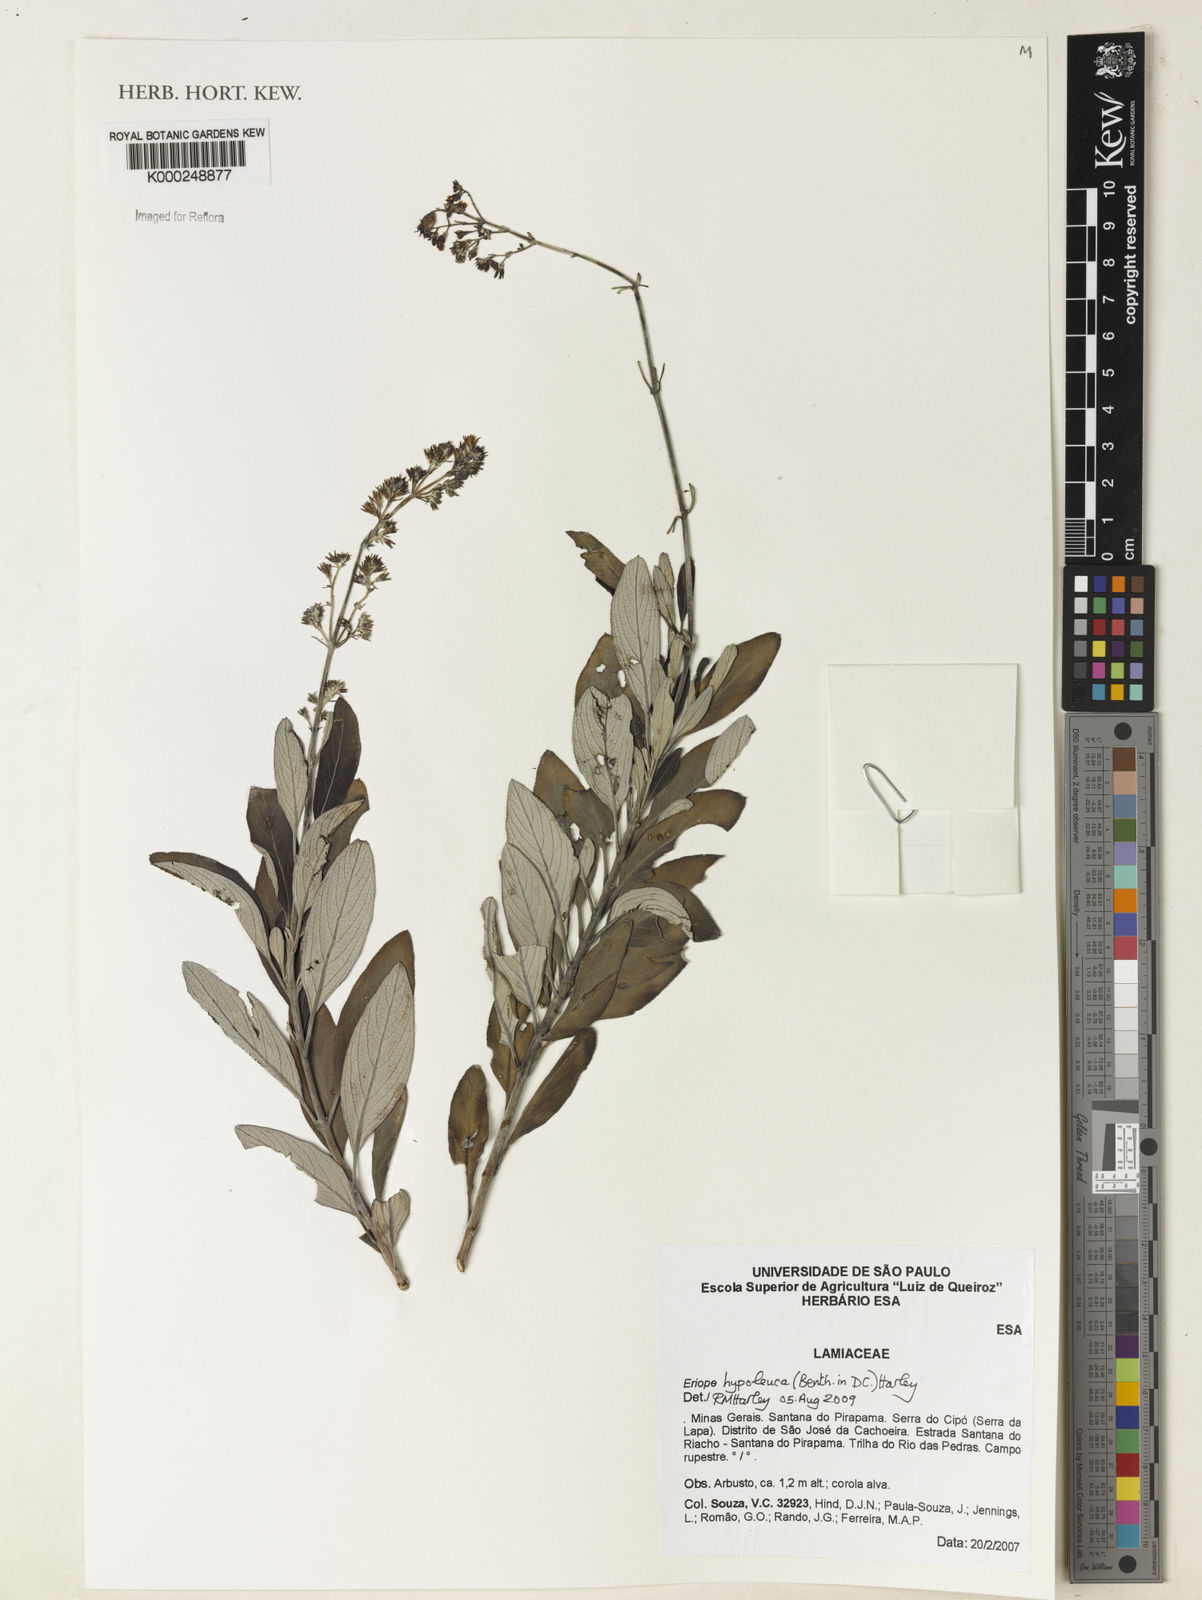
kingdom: Plantae
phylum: Tracheophyta
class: Magnoliopsida
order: Lamiales
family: Lamiaceae
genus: Eriope
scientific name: Eriope macrostachya
